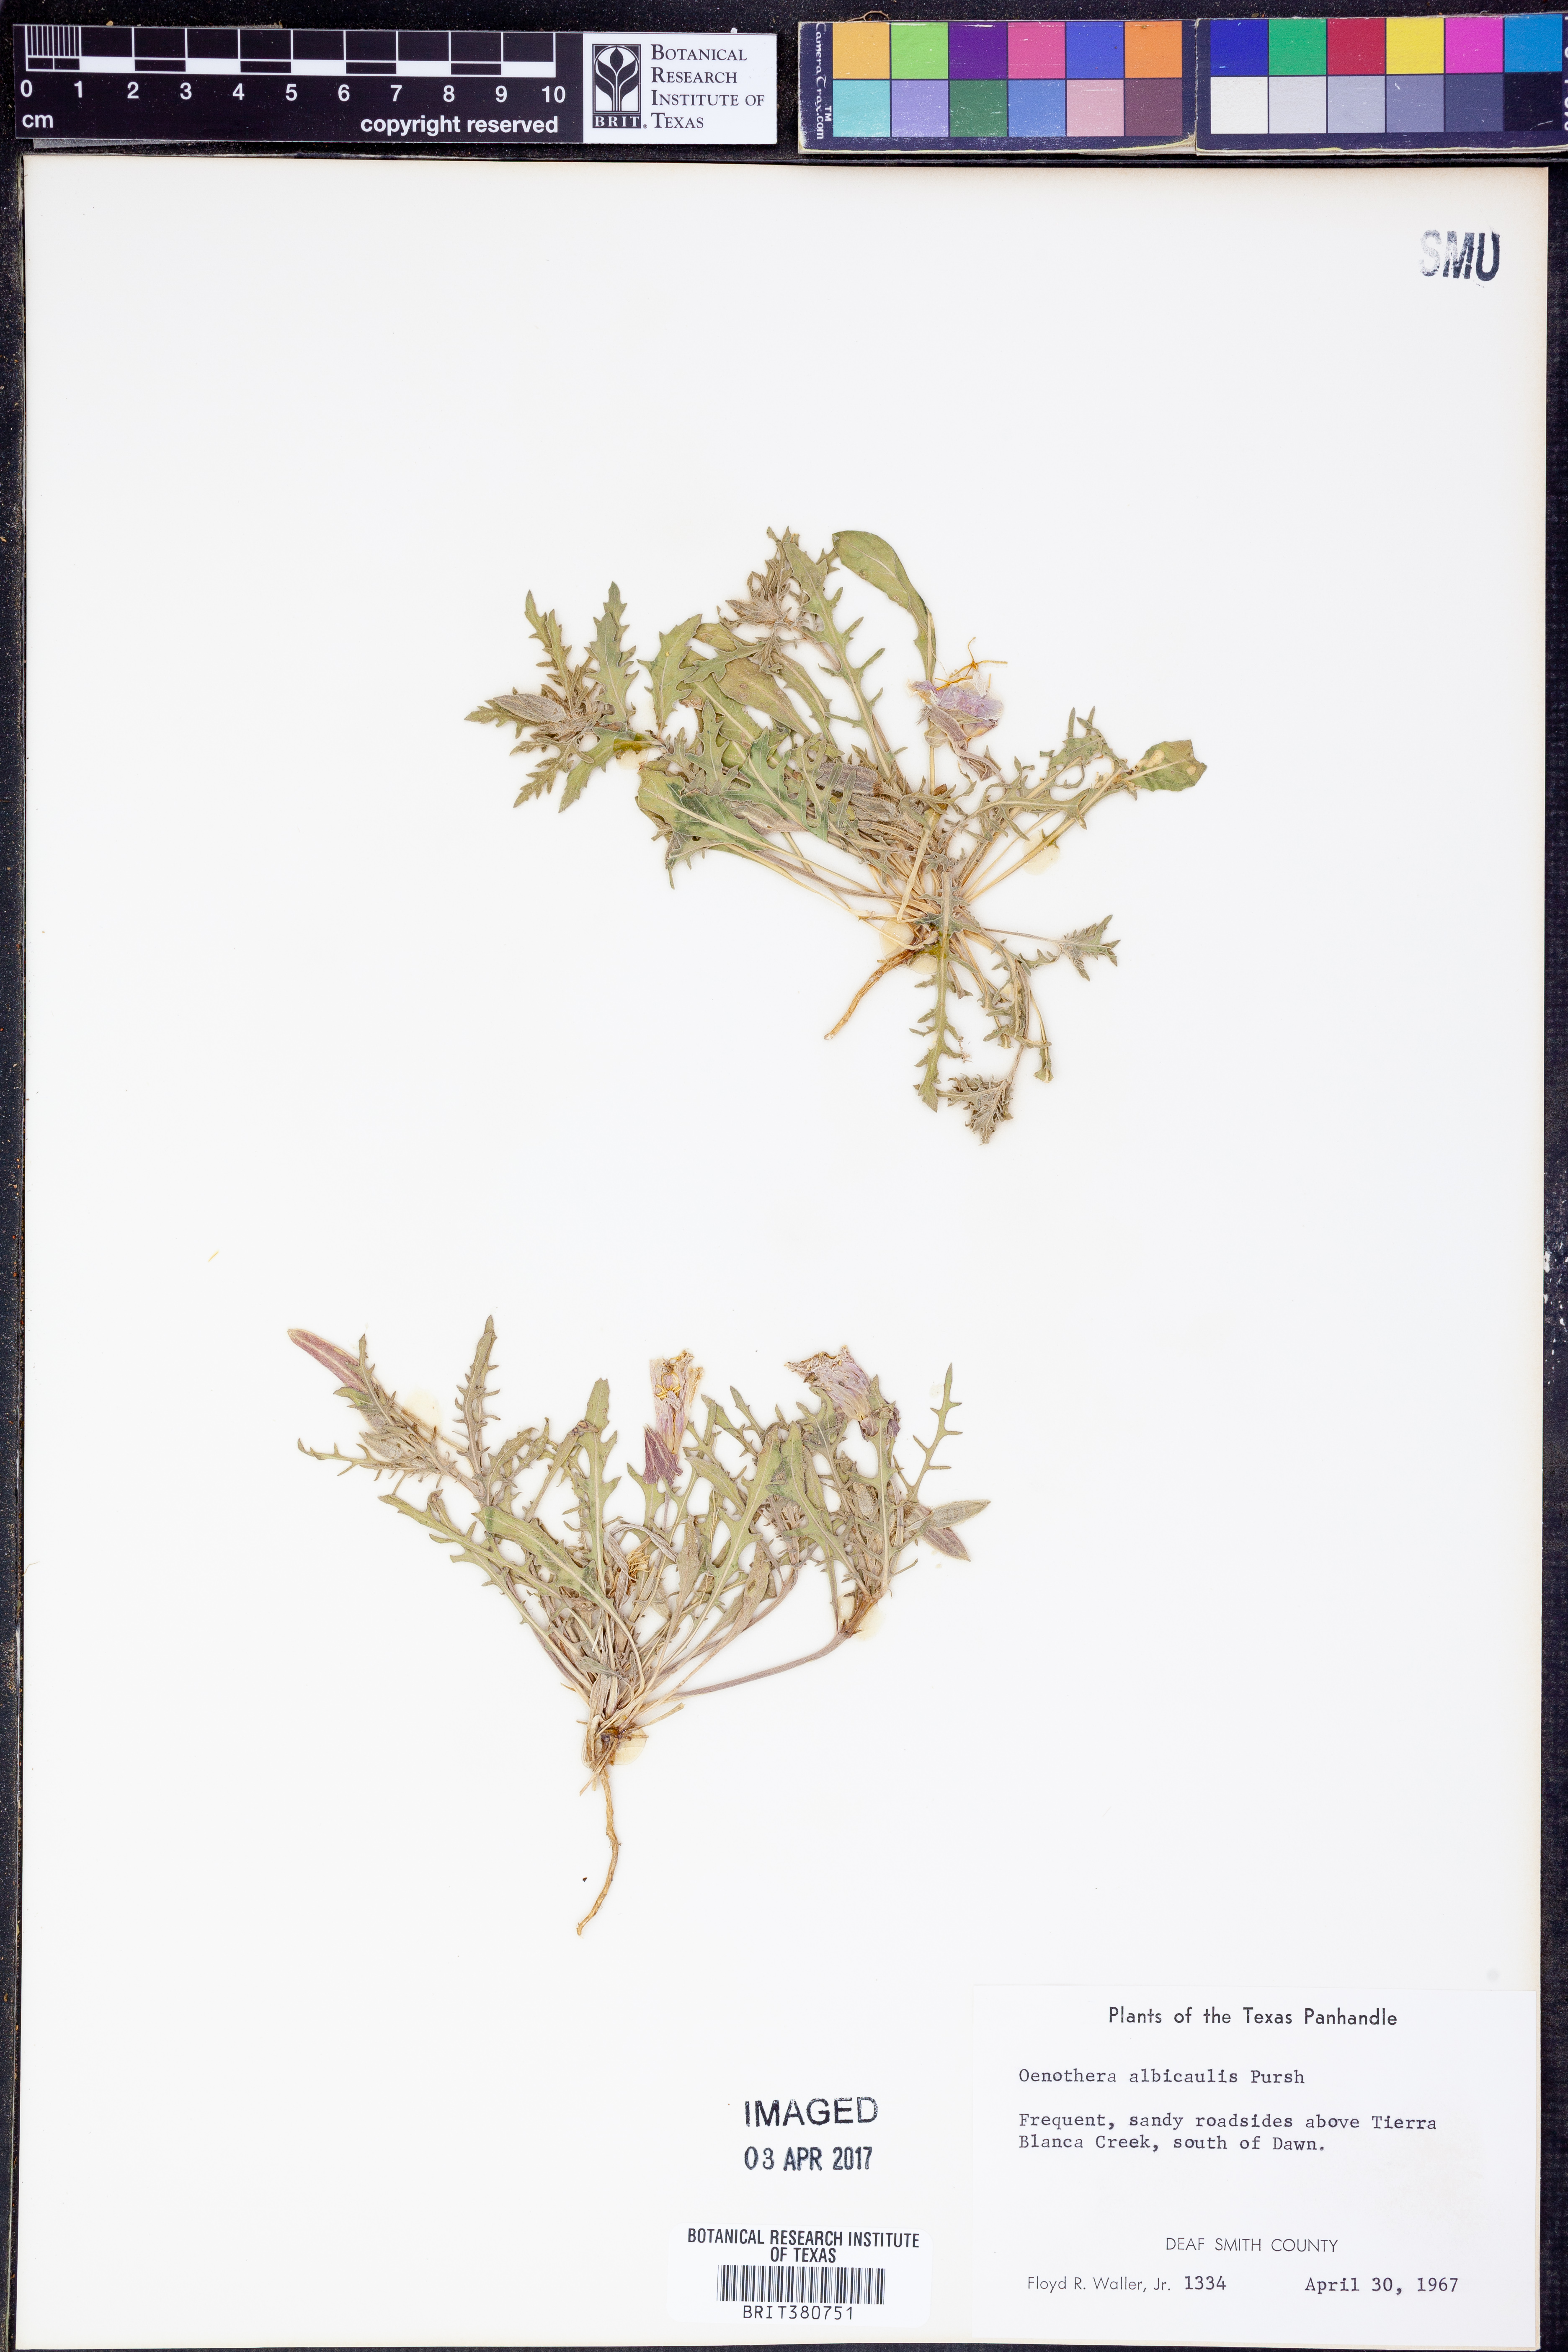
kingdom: Plantae
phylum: Tracheophyta
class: Magnoliopsida
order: Myrtales
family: Onagraceae
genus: Oenothera
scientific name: Oenothera albicaulis
